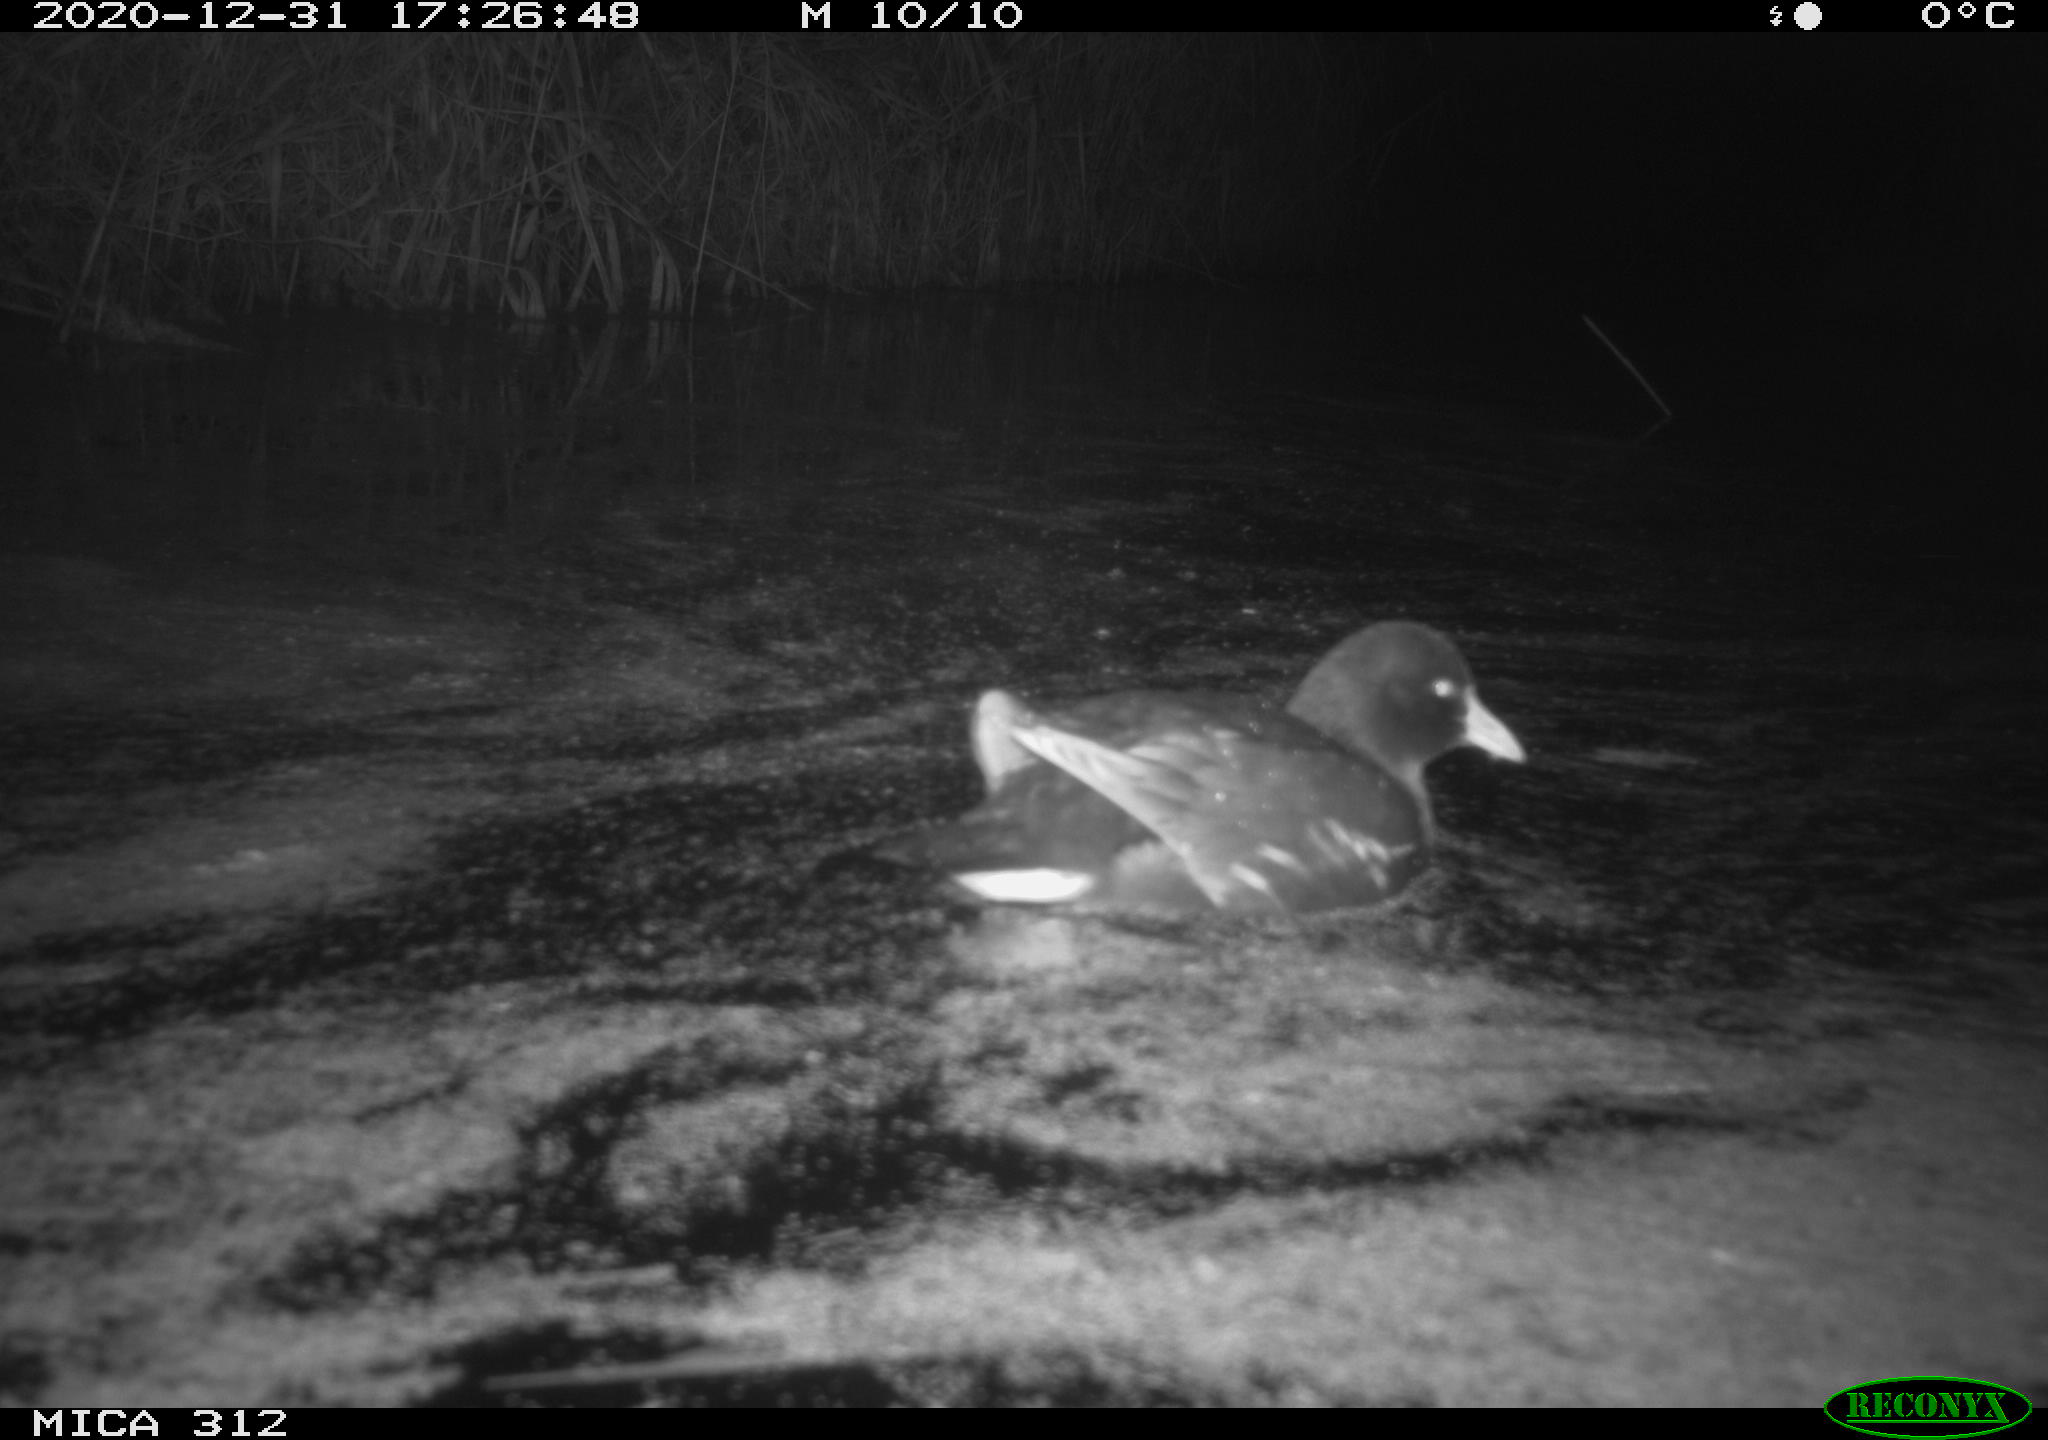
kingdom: Animalia
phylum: Chordata
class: Aves
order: Gruiformes
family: Rallidae
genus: Gallinula
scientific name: Gallinula chloropus
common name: Common moorhen
